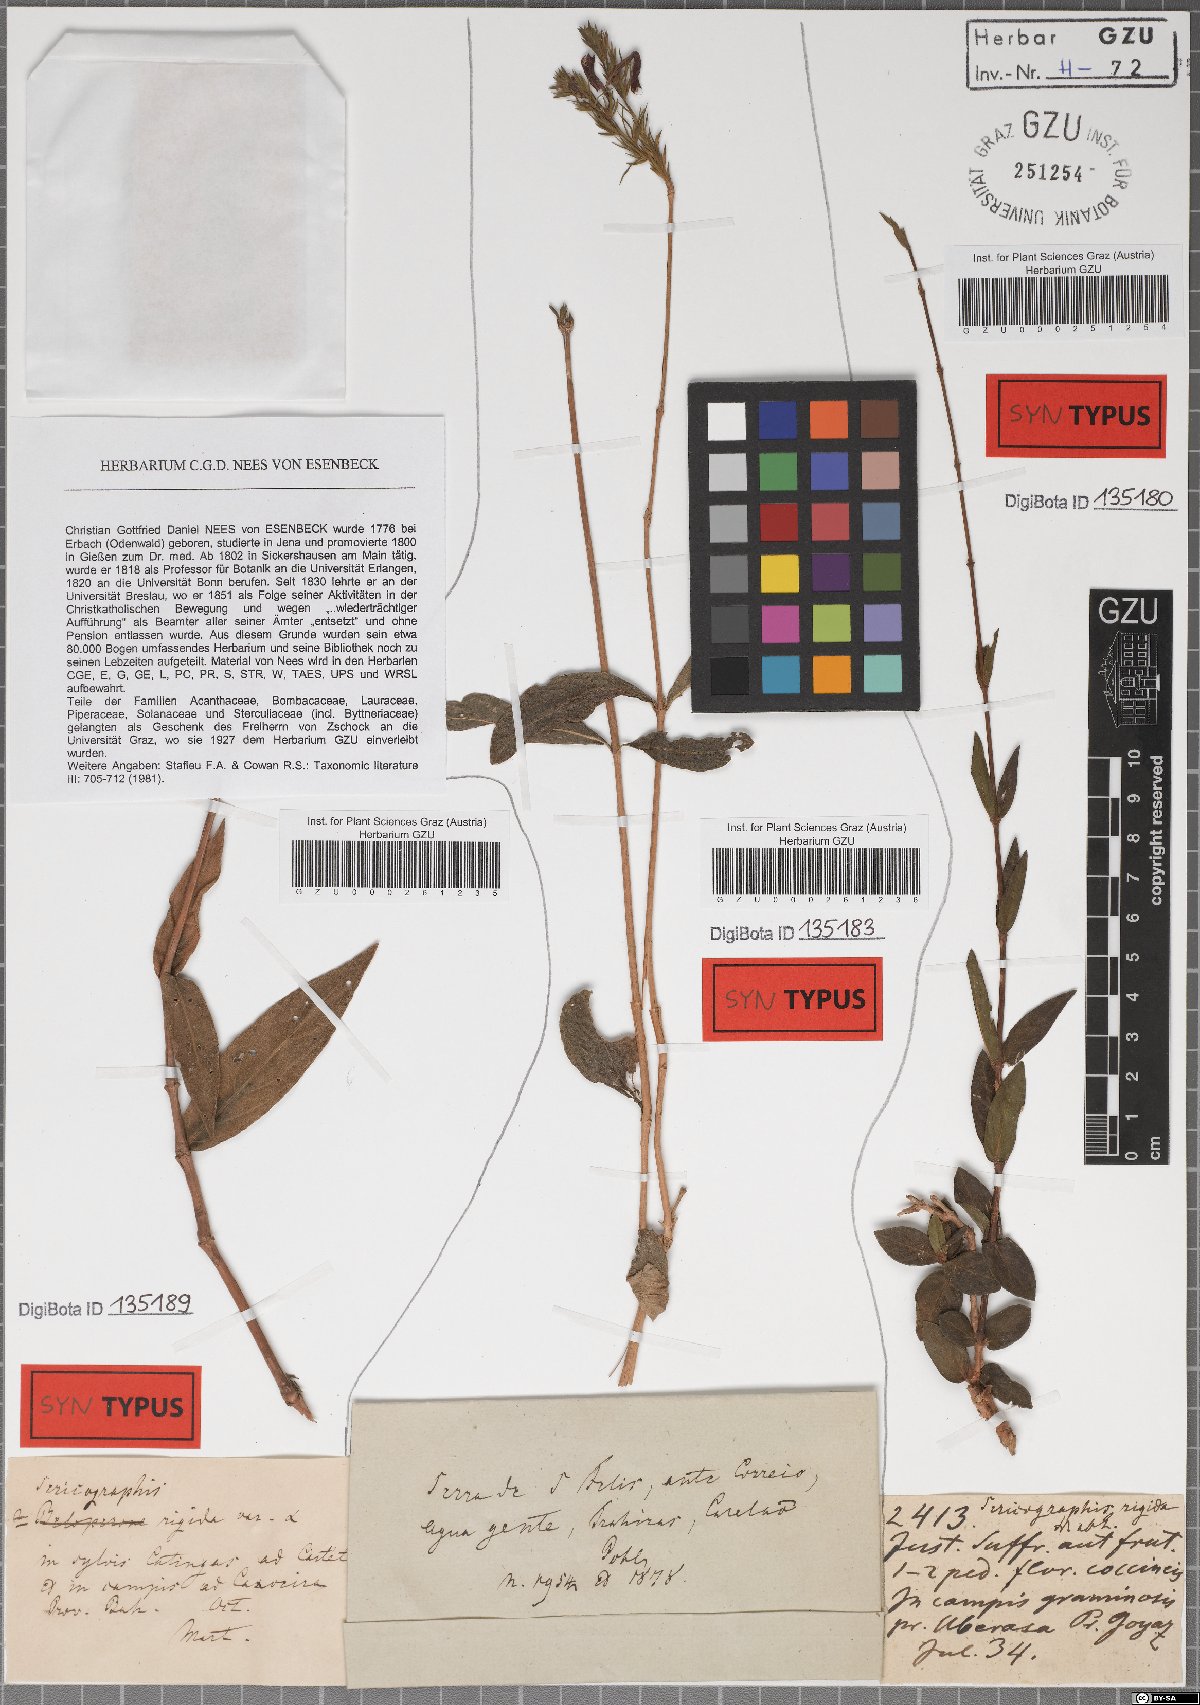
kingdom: Plantae
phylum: Tracheophyta
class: Magnoliopsida
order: Lamiales
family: Acanthaceae
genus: Dianthera
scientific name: Dianthera rigida
